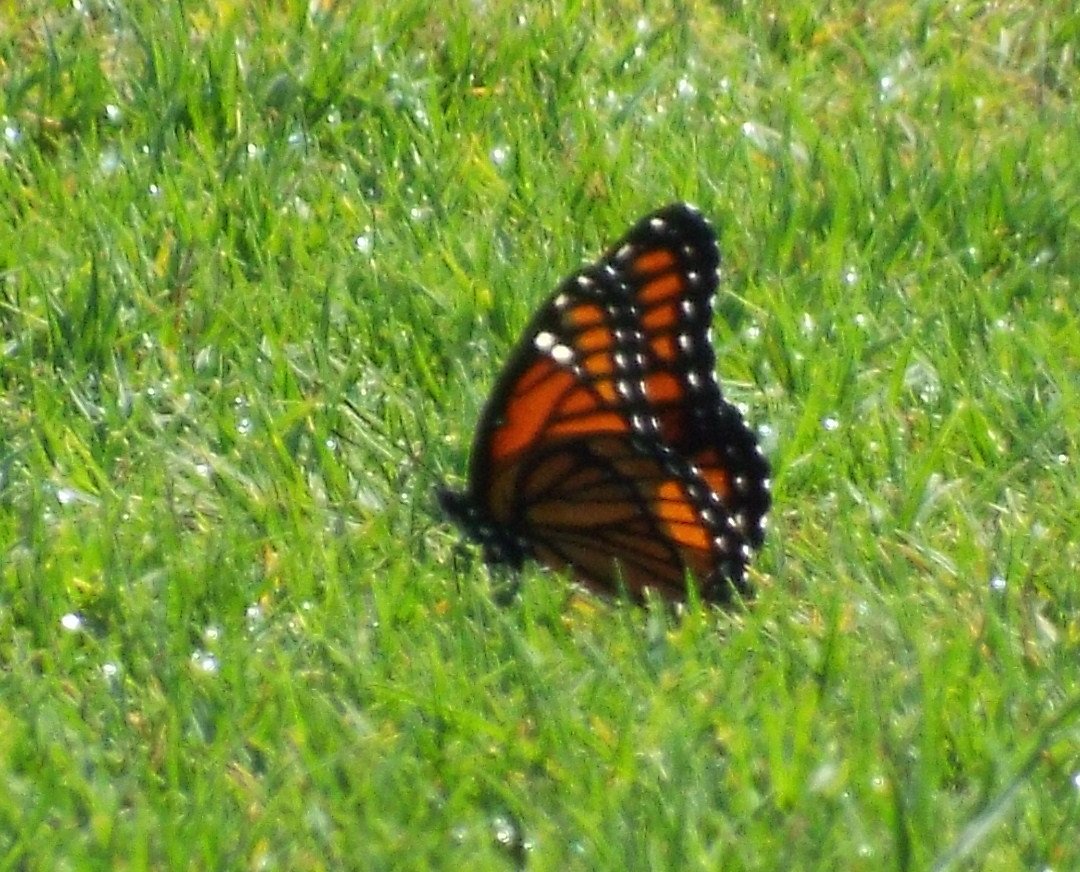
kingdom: Animalia
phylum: Arthropoda
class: Insecta
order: Lepidoptera
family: Nymphalidae
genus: Limenitis
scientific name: Limenitis archippus
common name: Viceroy
